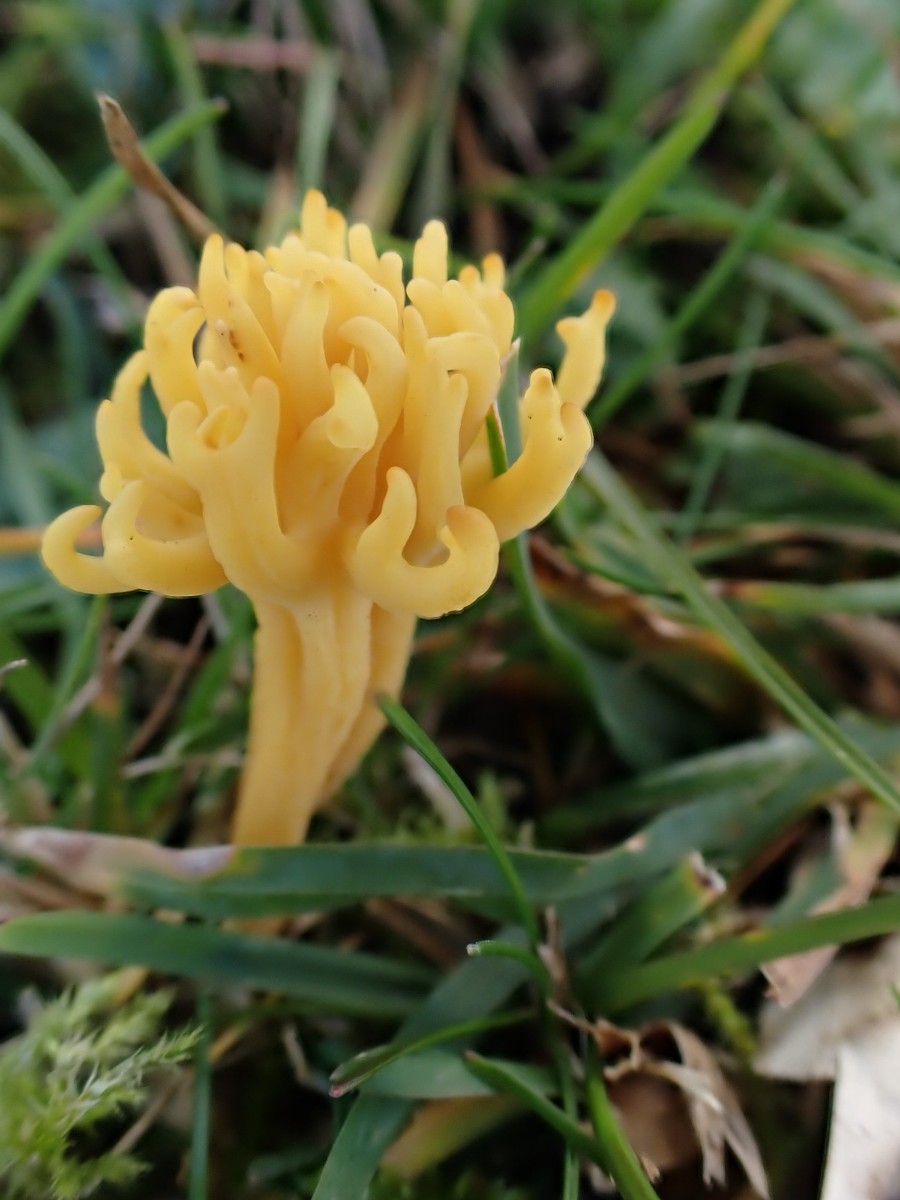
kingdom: Fungi
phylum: Basidiomycota
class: Agaricomycetes
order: Agaricales
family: Clavariaceae
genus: Clavulinopsis
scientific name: Clavulinopsis corniculata
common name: eng-køllesvamp
